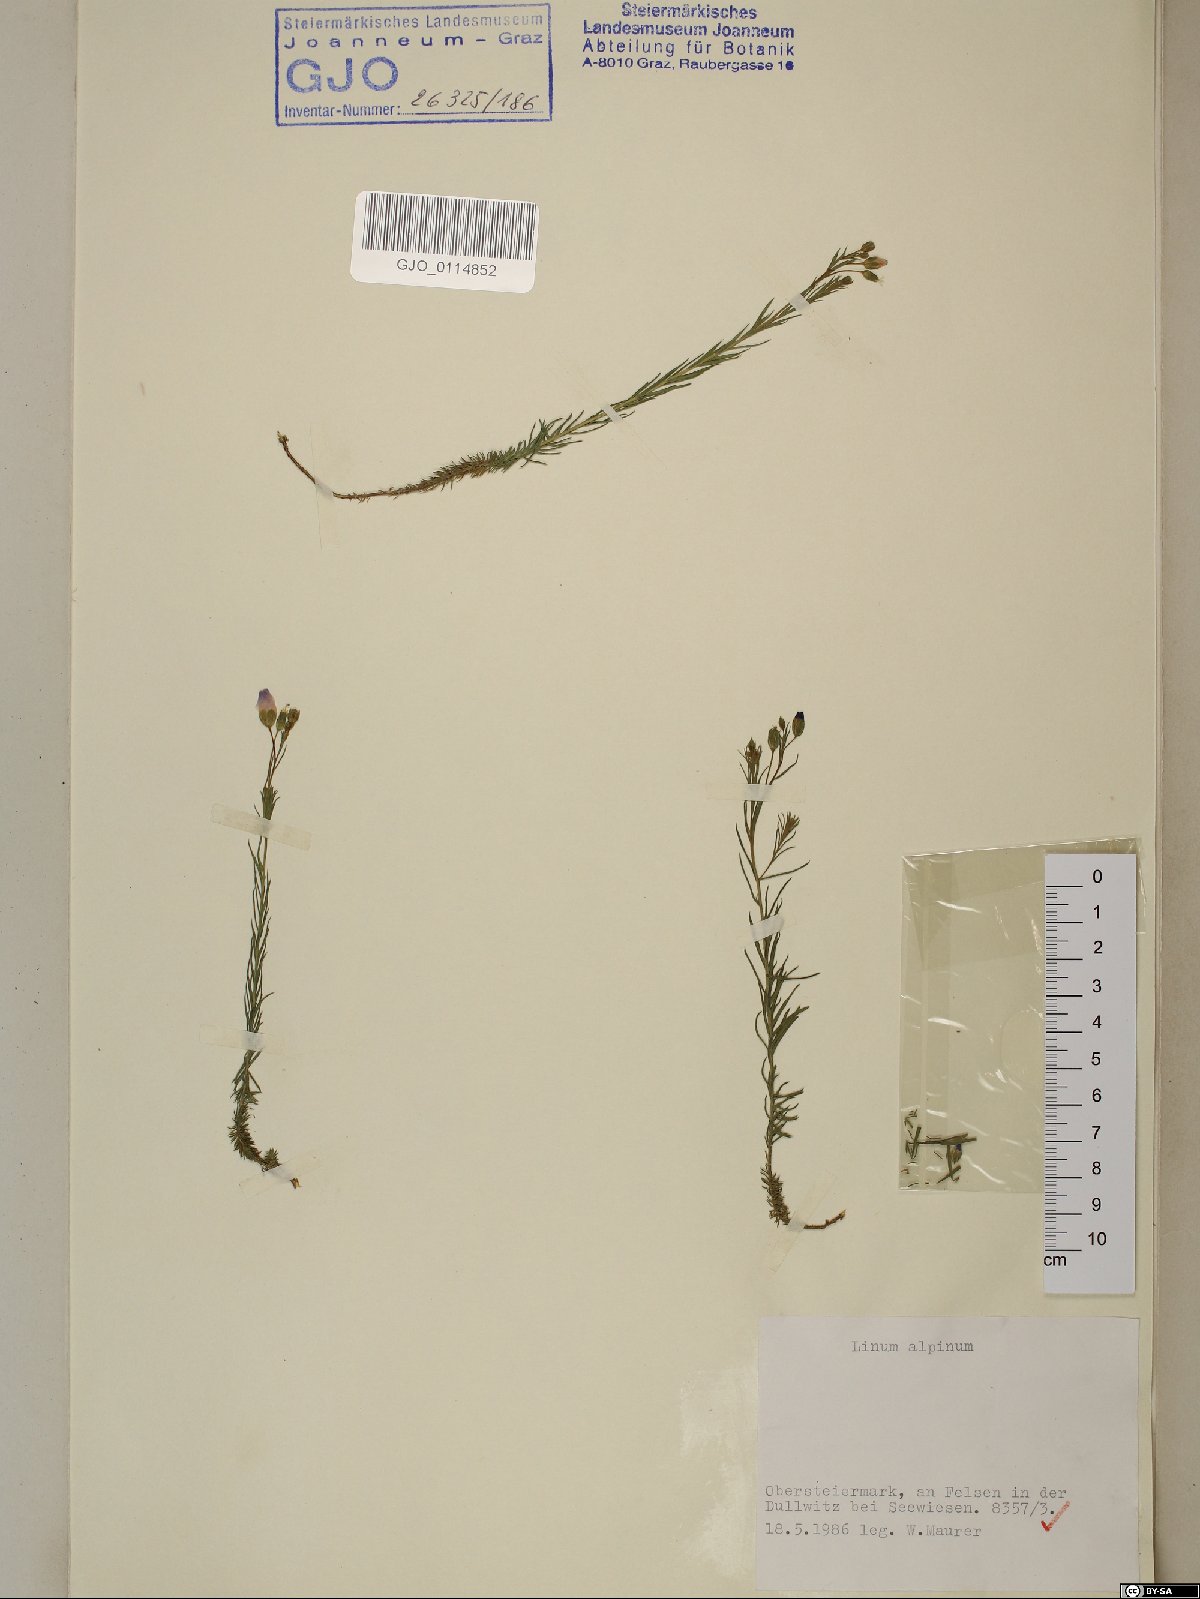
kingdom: Plantae
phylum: Tracheophyta
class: Magnoliopsida
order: Malpighiales
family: Linaceae
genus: Linum
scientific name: Linum alpinum
